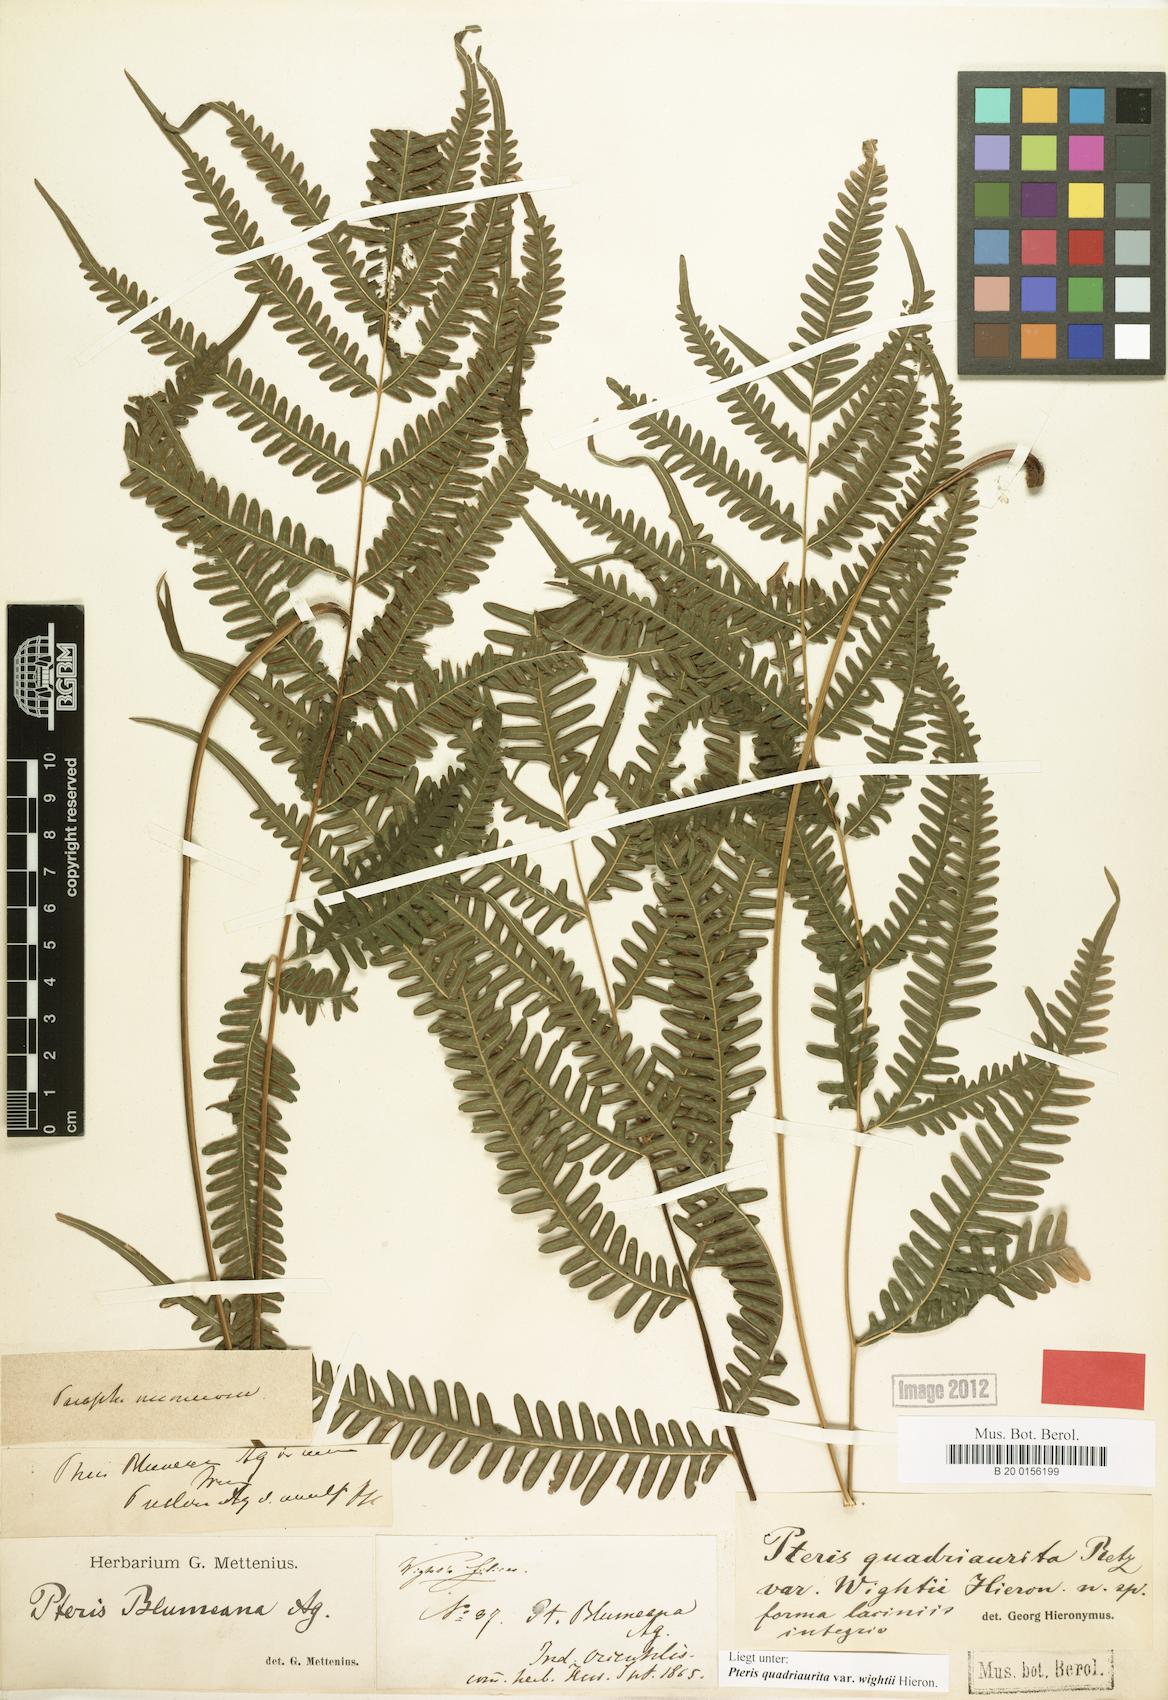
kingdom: Plantae
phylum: Tracheophyta
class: Polypodiopsida
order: Polypodiales
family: Pteridaceae
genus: Pteris
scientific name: Pteris quadriaurita
